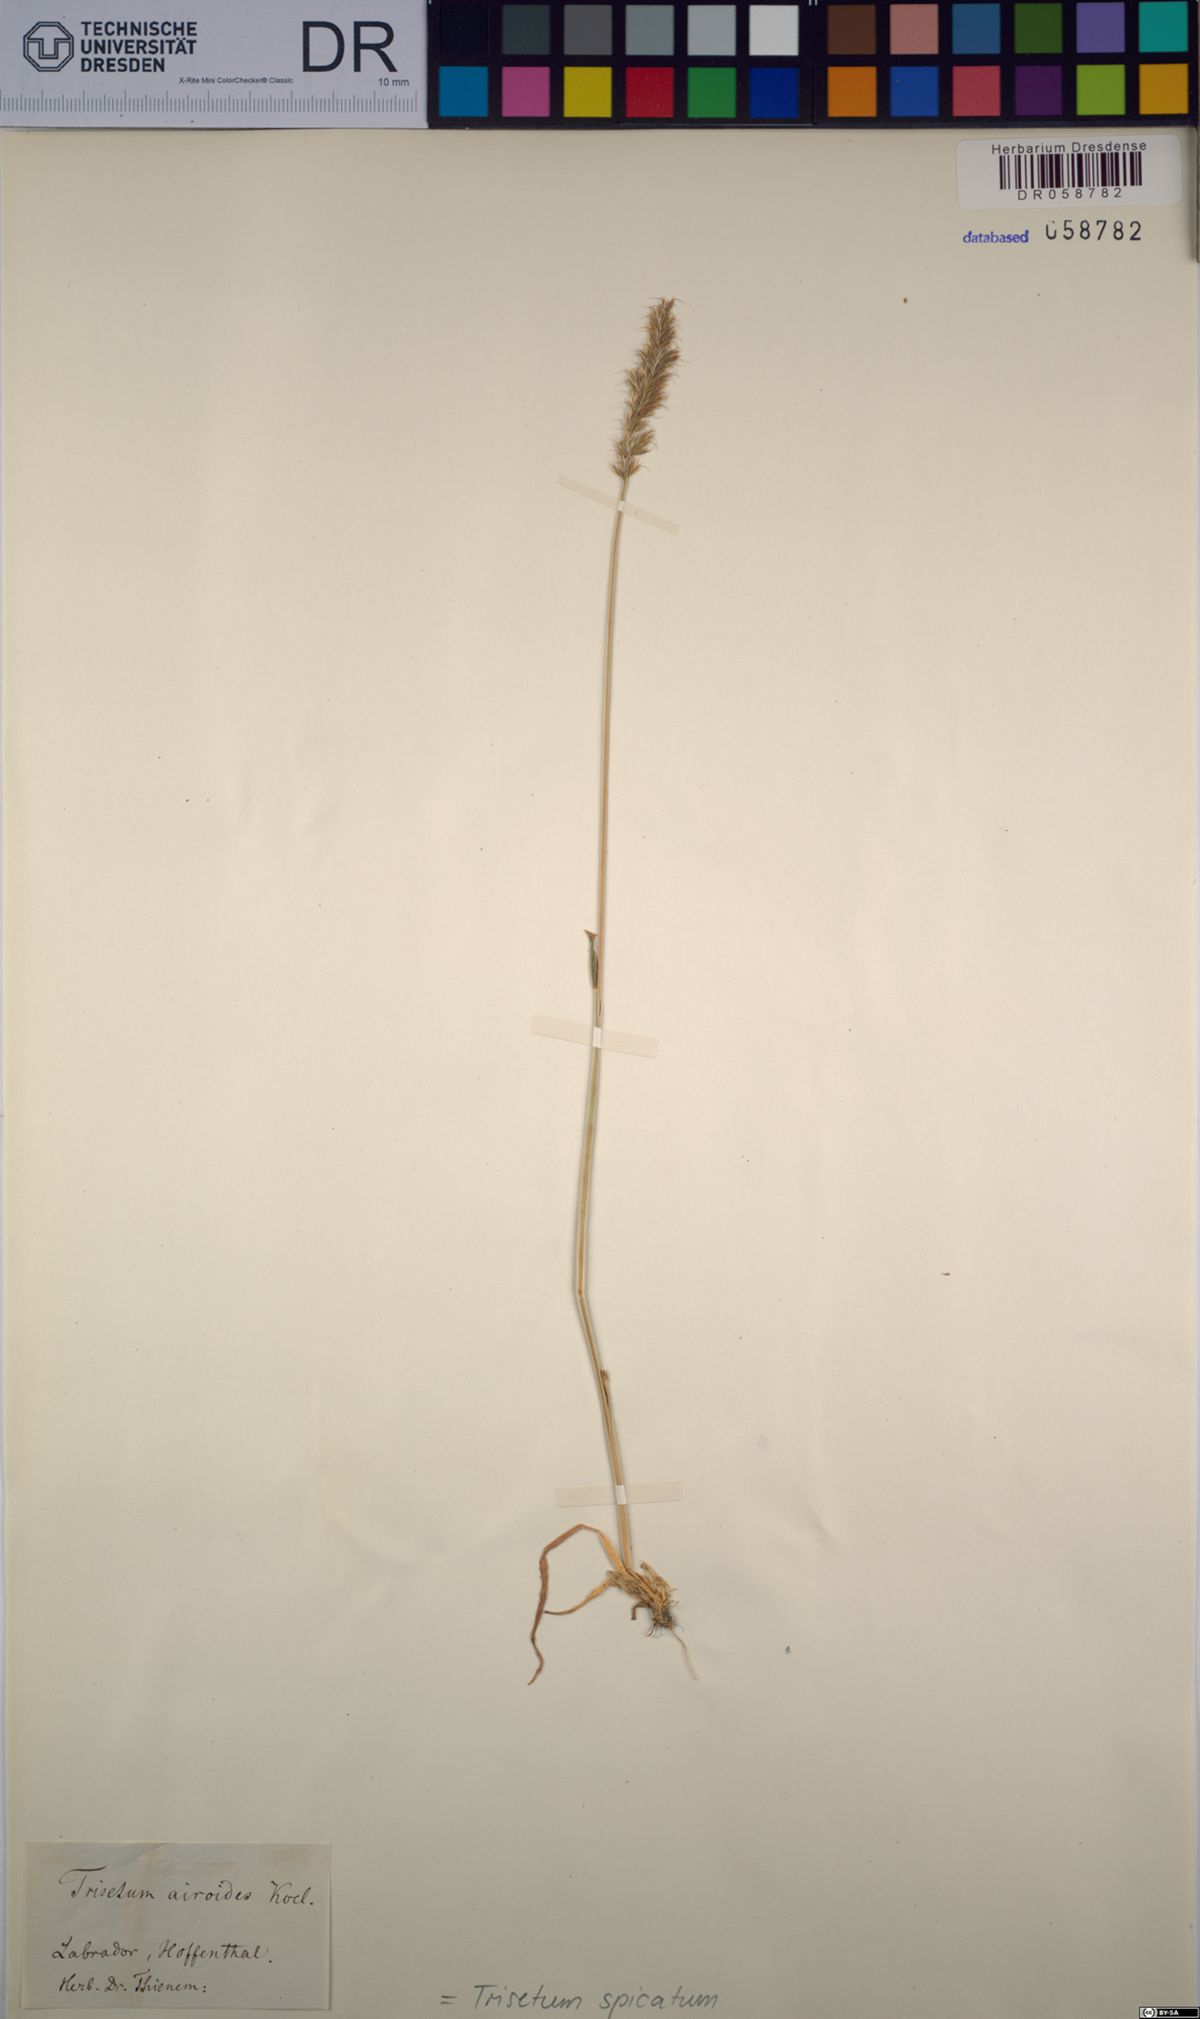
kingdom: Plantae
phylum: Tracheophyta
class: Liliopsida
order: Poales
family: Poaceae
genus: Koeleria
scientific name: Koeleria spicata
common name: Mountain trisetum
